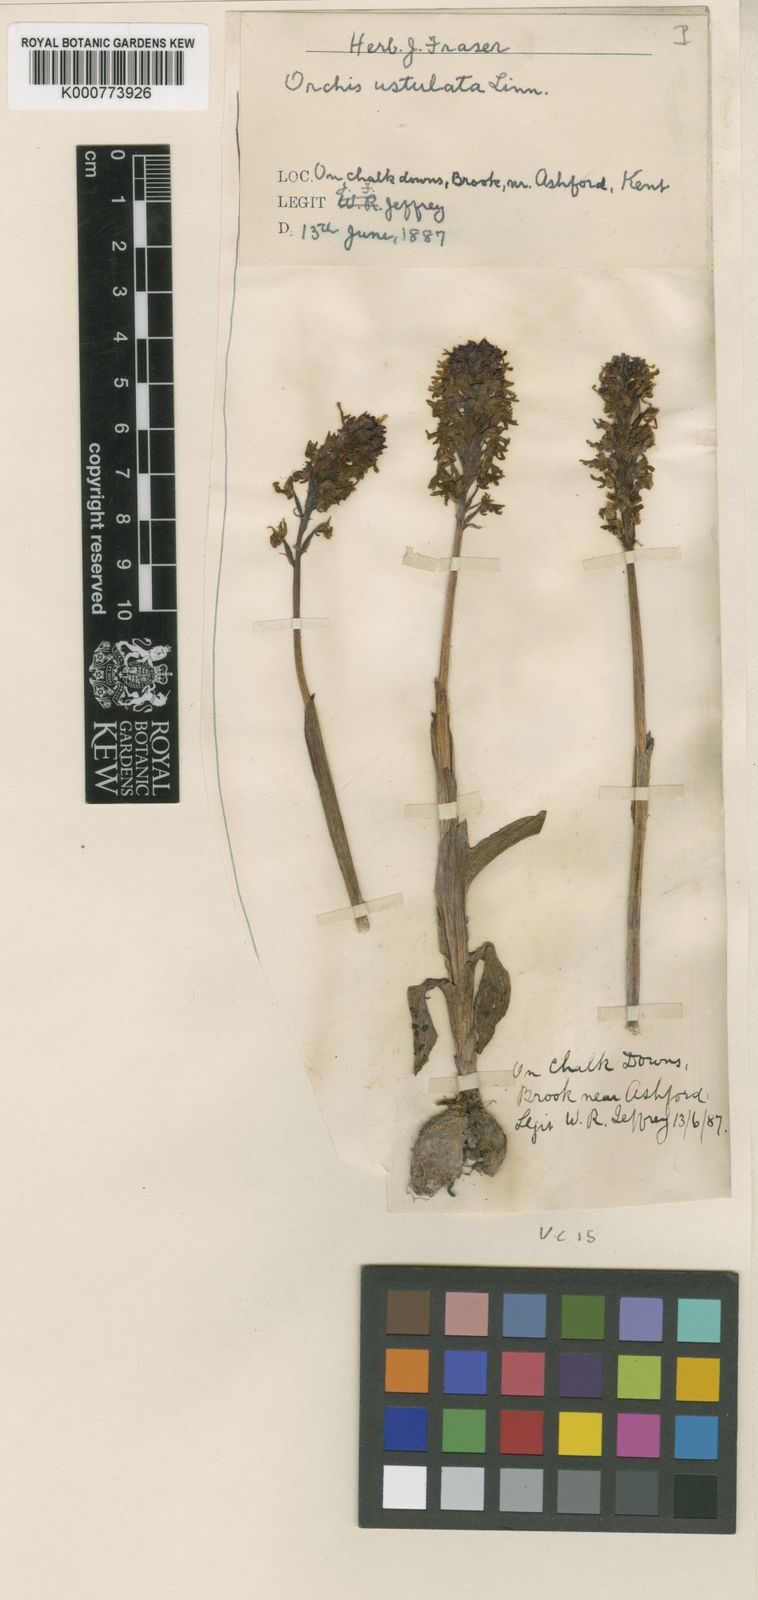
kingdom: Plantae
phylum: Tracheophyta
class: Liliopsida
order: Asparagales
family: Orchidaceae
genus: Neotinea
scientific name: Neotinea ustulata
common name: Burnt orchid
